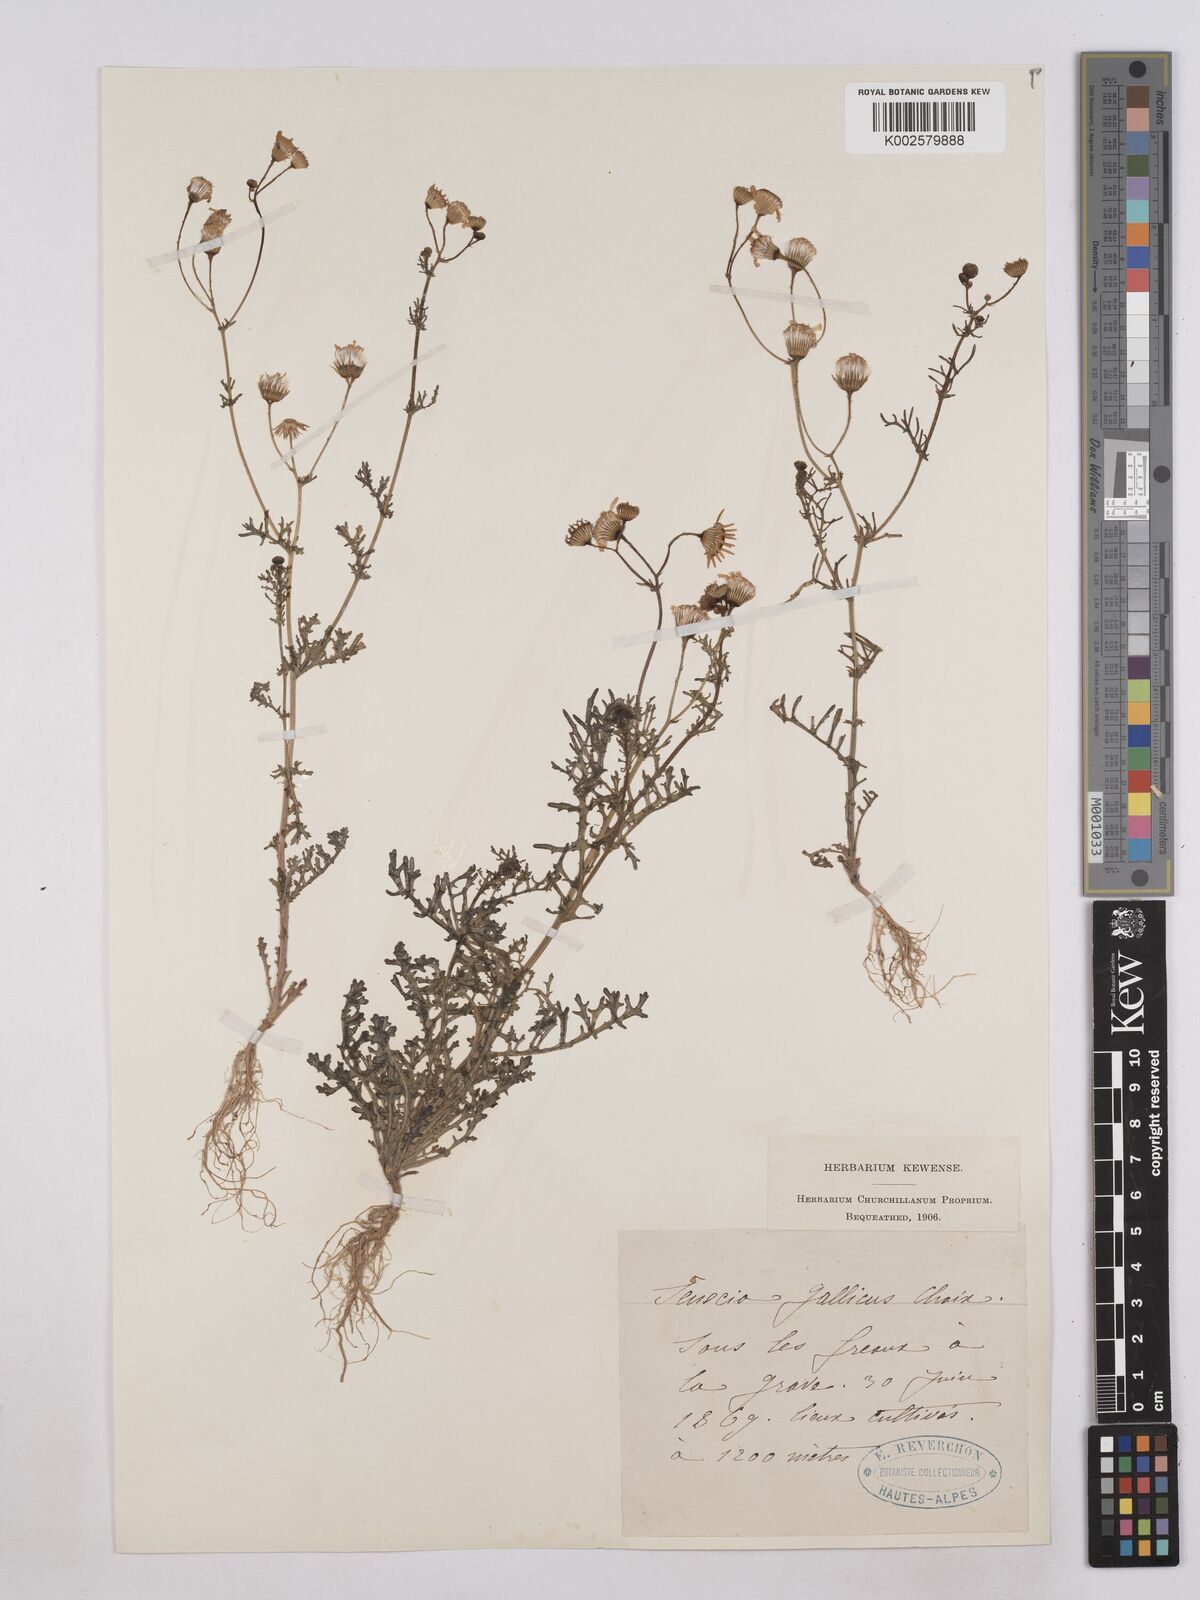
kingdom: Plantae
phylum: Tracheophyta
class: Magnoliopsida
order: Asterales
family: Asteraceae
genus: Senecio
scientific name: Senecio gallicus
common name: French groundsel
